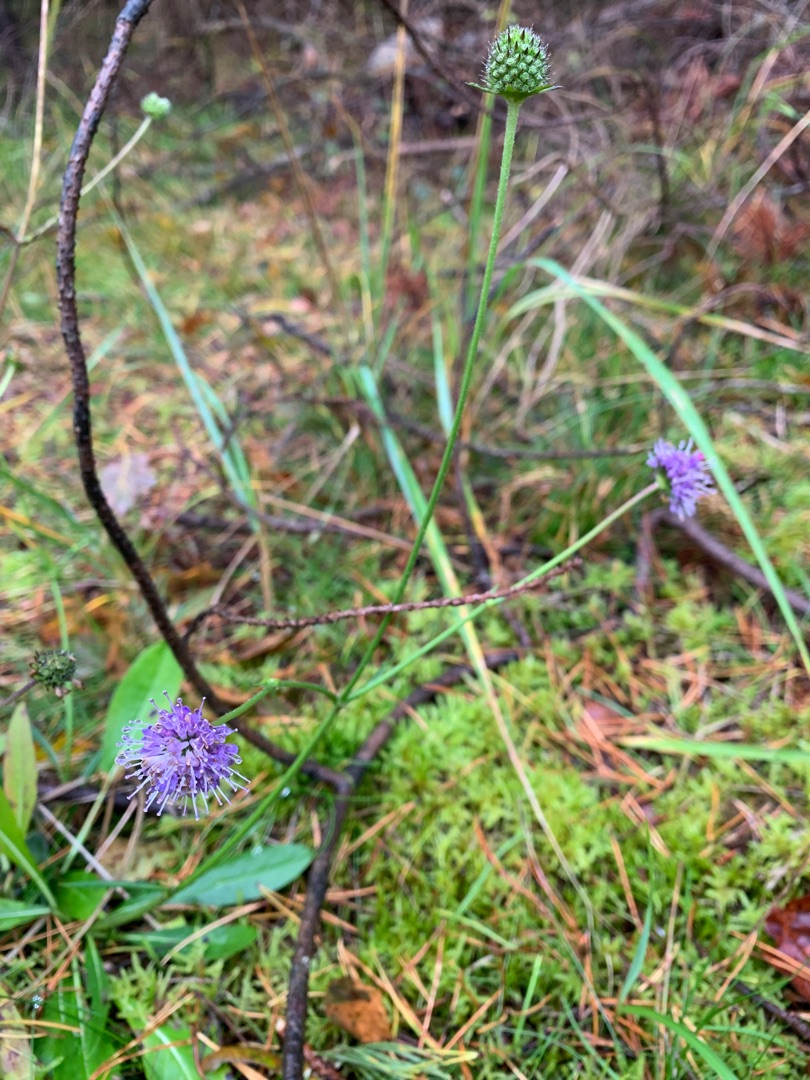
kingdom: Plantae
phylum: Tracheophyta
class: Magnoliopsida
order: Dipsacales
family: Caprifoliaceae
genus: Succisa
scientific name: Succisa pratensis
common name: Djævelsbid
